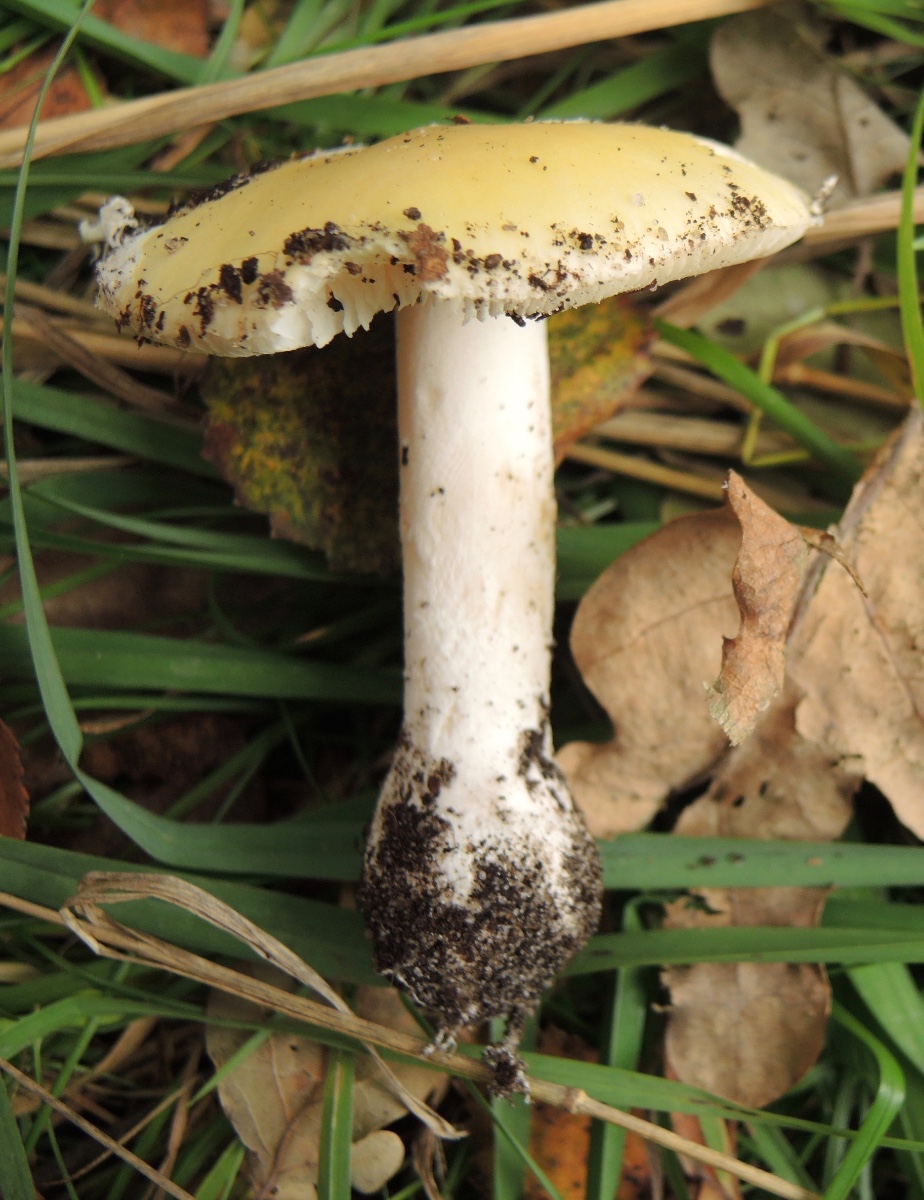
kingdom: Fungi
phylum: Basidiomycota
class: Agaricomycetes
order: Agaricales
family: Amanitaceae
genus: Amanita
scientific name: Amanita gemmata
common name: okkergul fluesvamp
